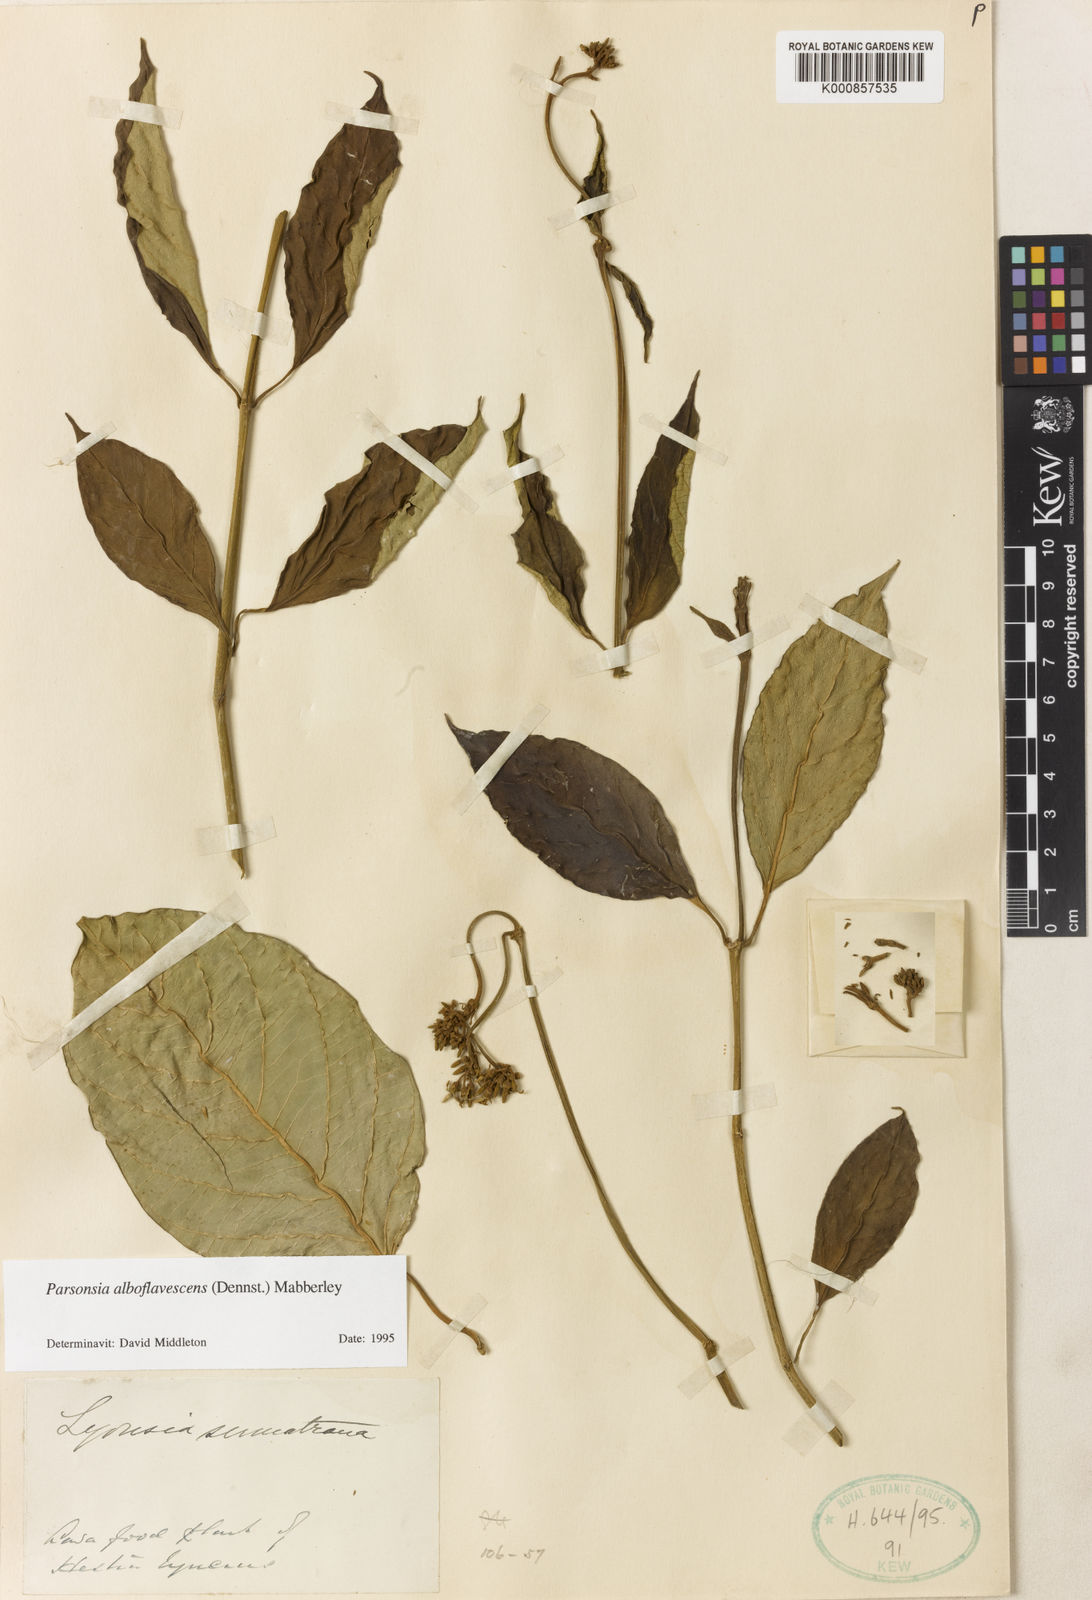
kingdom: Plantae
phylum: Tracheophyta
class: Magnoliopsida
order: Gentianales
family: Apocynaceae
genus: Parsonsia
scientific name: Parsonsia alboflavescens
